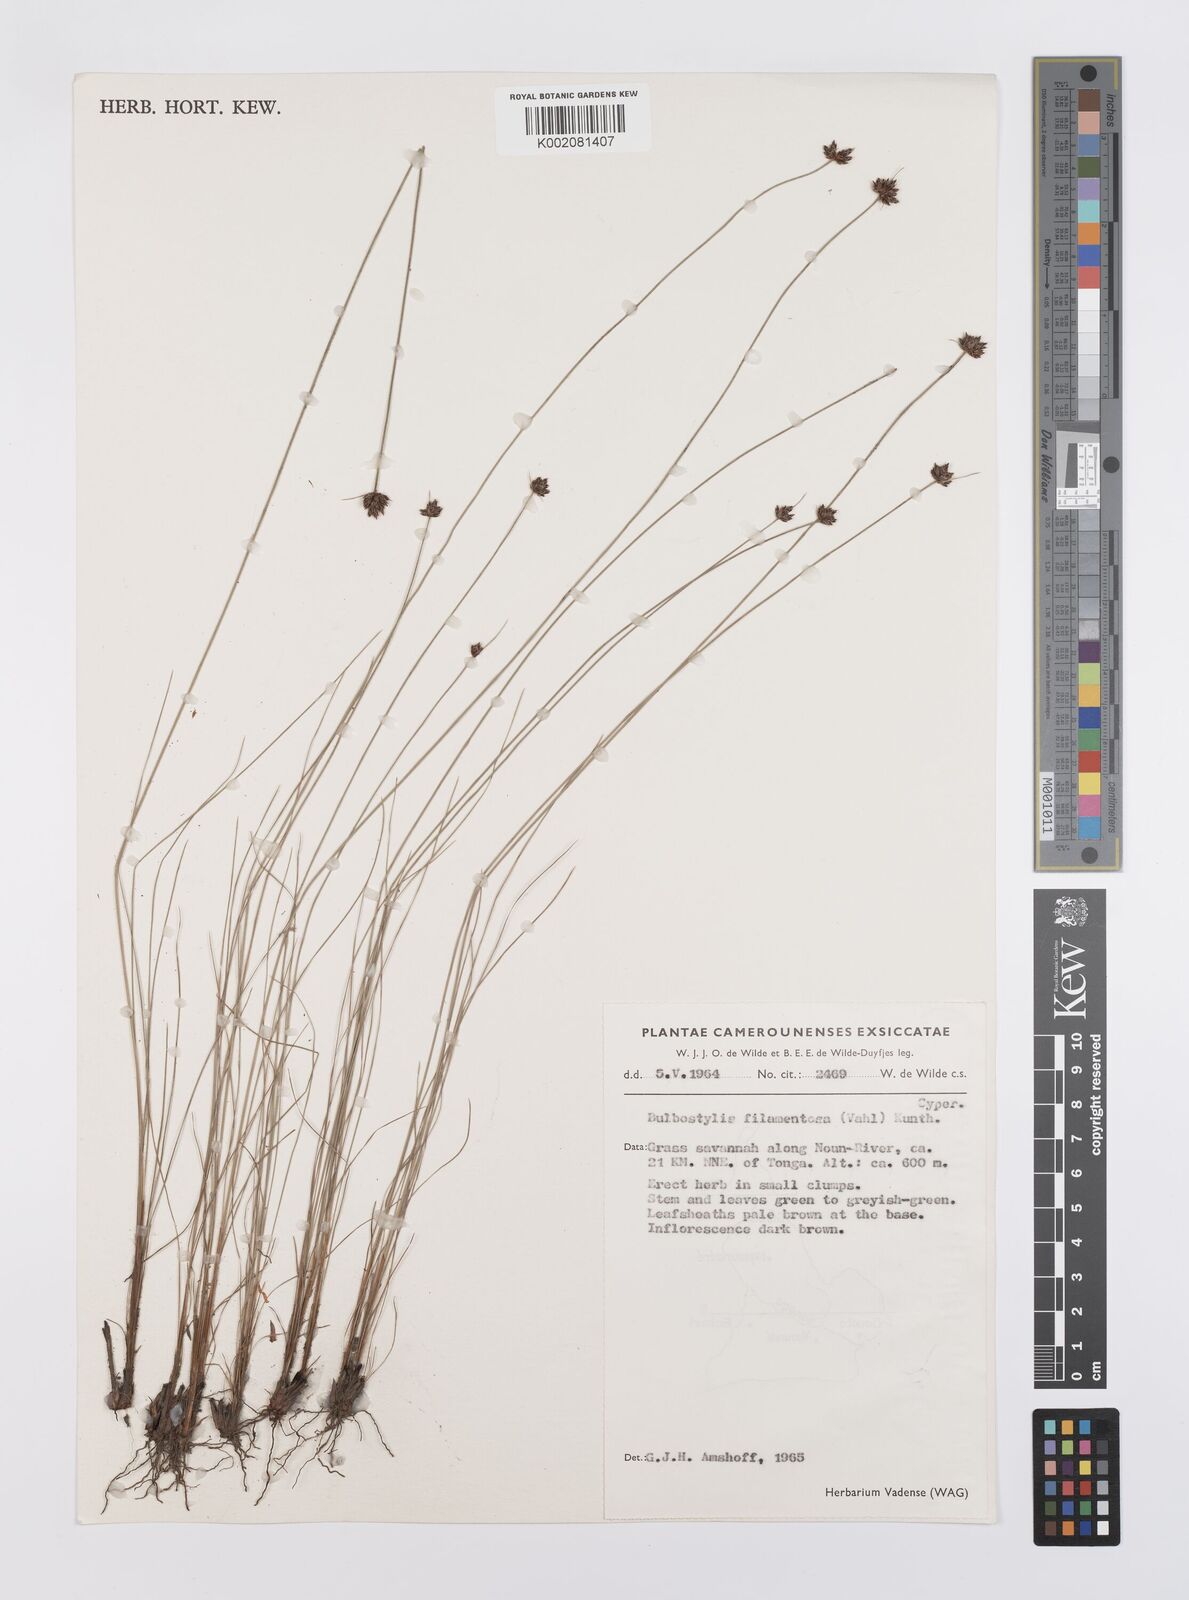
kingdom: Plantae
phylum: Tracheophyta
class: Liliopsida
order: Poales
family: Cyperaceae
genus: Bulbostylis
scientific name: Bulbostylis filamentosa
